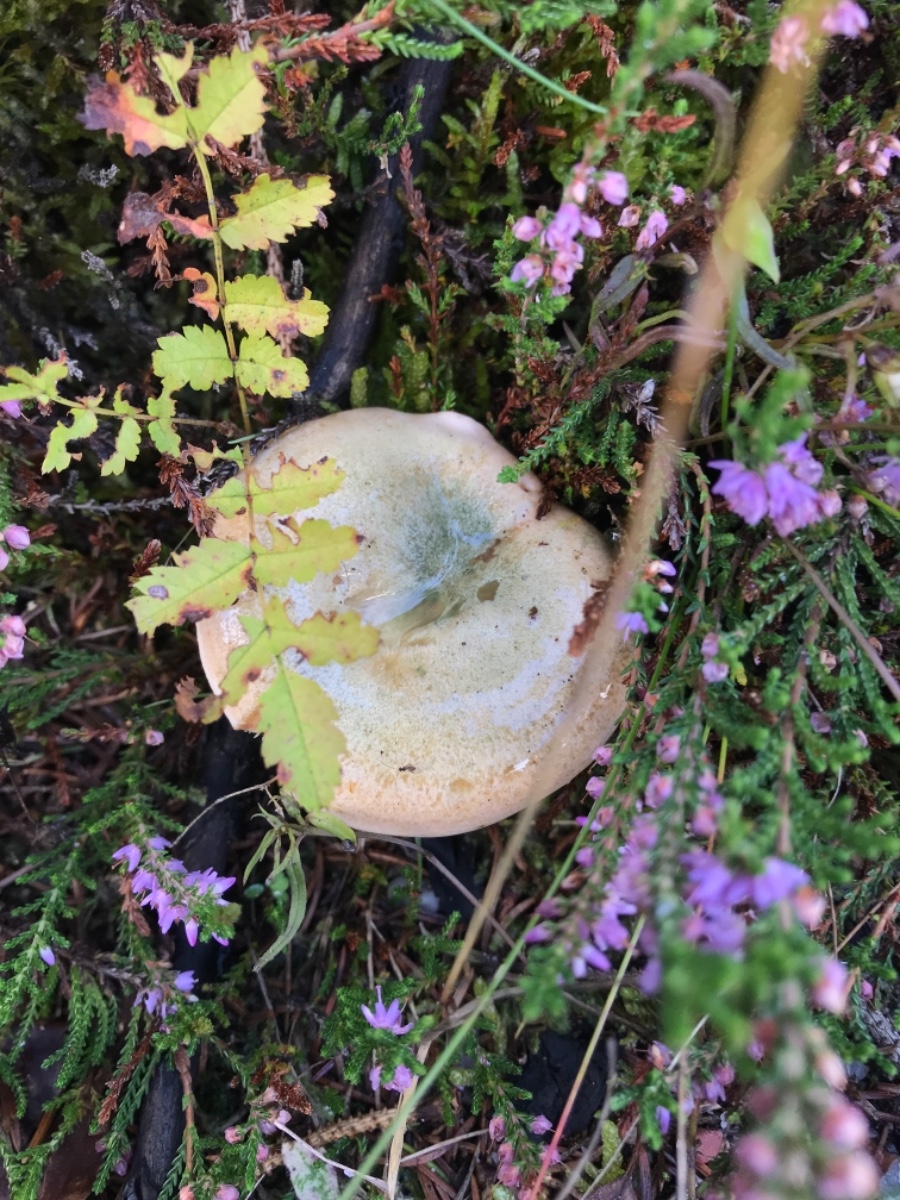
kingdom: Fungi
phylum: Basidiomycota
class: Agaricomycetes
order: Russulales
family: Russulaceae
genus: Lactarius
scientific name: Lactarius deterrimus
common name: gran-mælkehat
